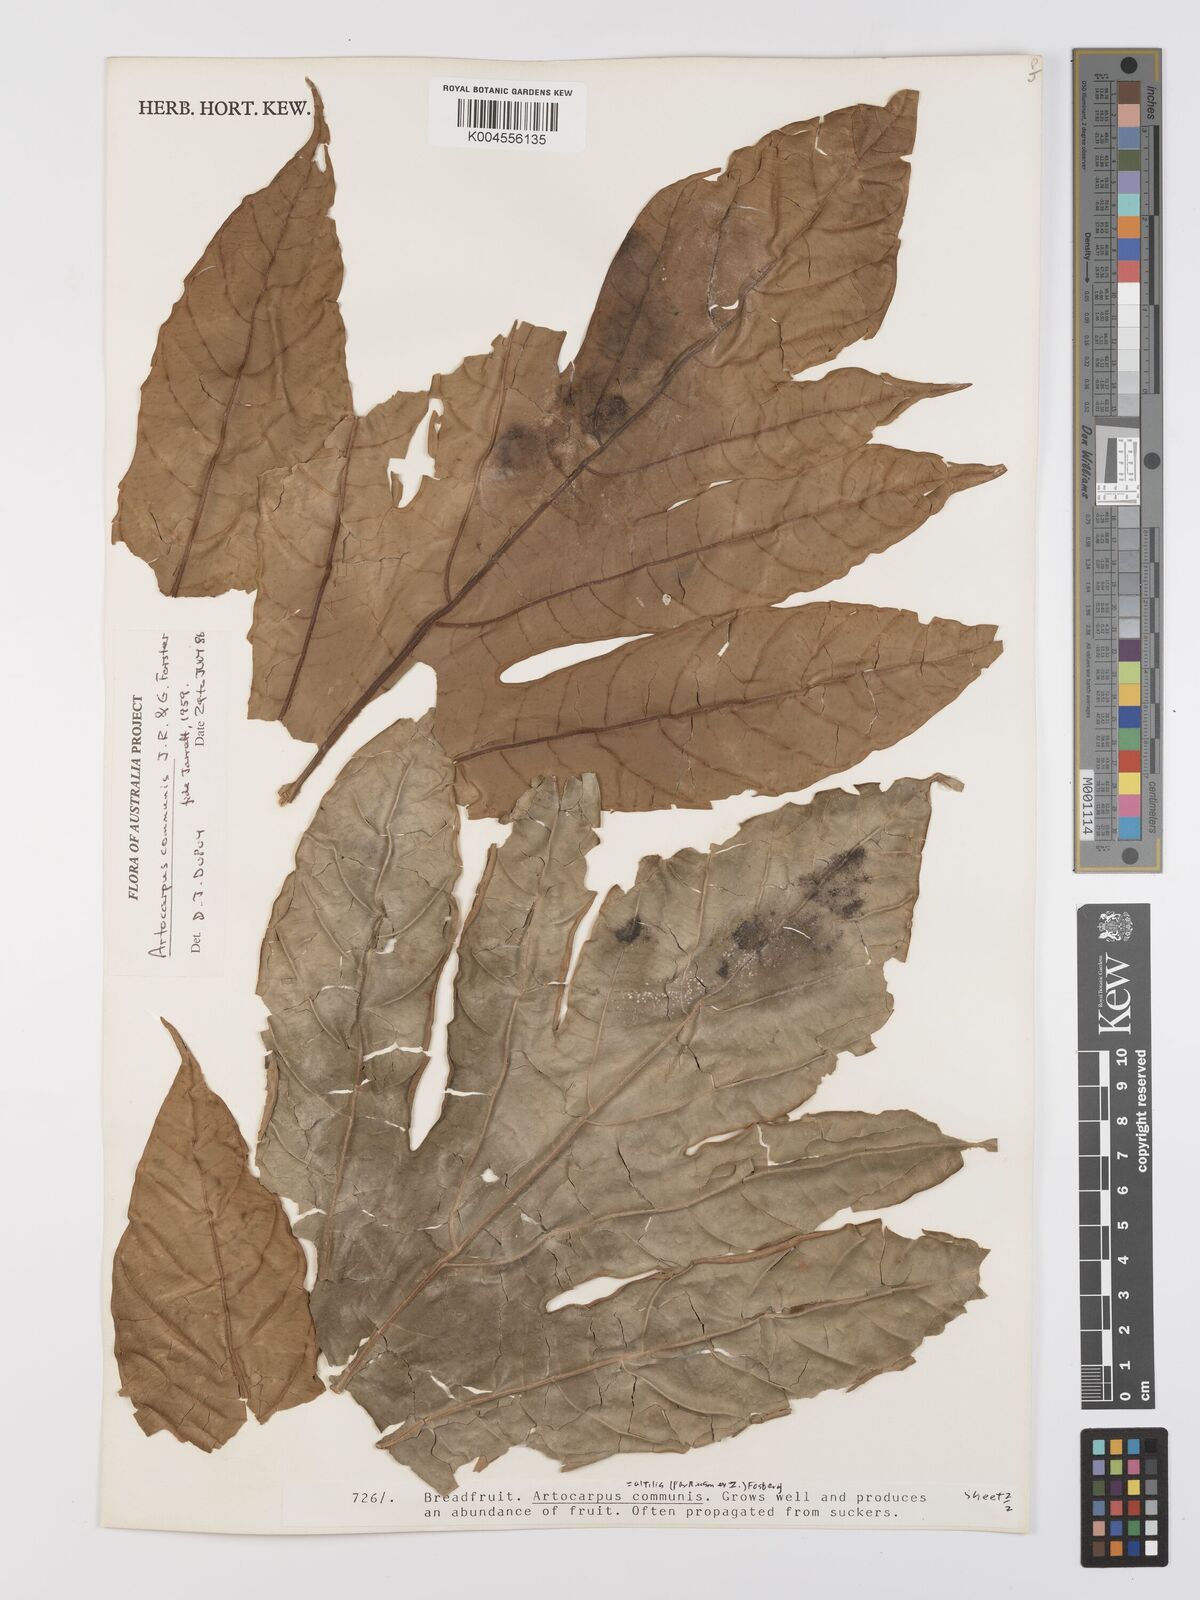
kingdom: Plantae
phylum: Tracheophyta
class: Magnoliopsida
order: Rosales
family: Moraceae
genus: Artocarpus
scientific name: Artocarpus altilis
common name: Breadfruit
